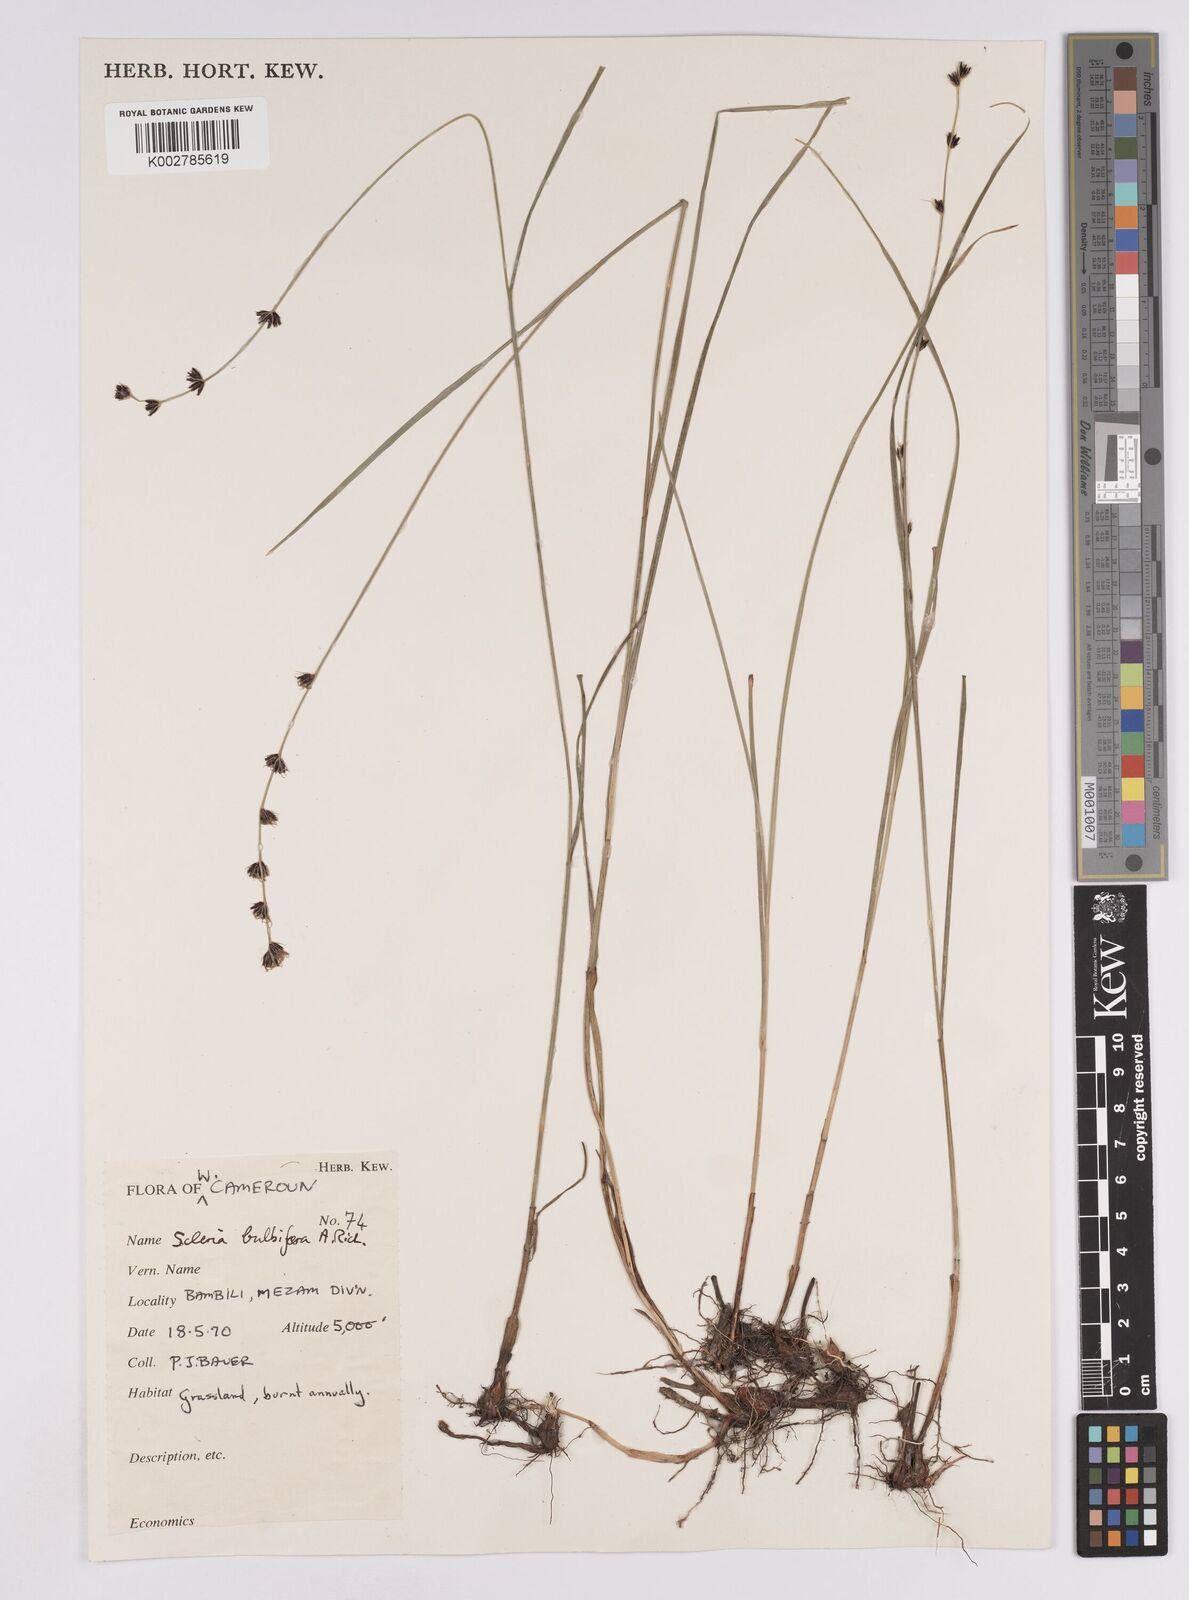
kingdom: Plantae
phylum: Tracheophyta
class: Liliopsida
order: Poales
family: Cyperaceae
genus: Scleria
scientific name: Scleria bulbifera
